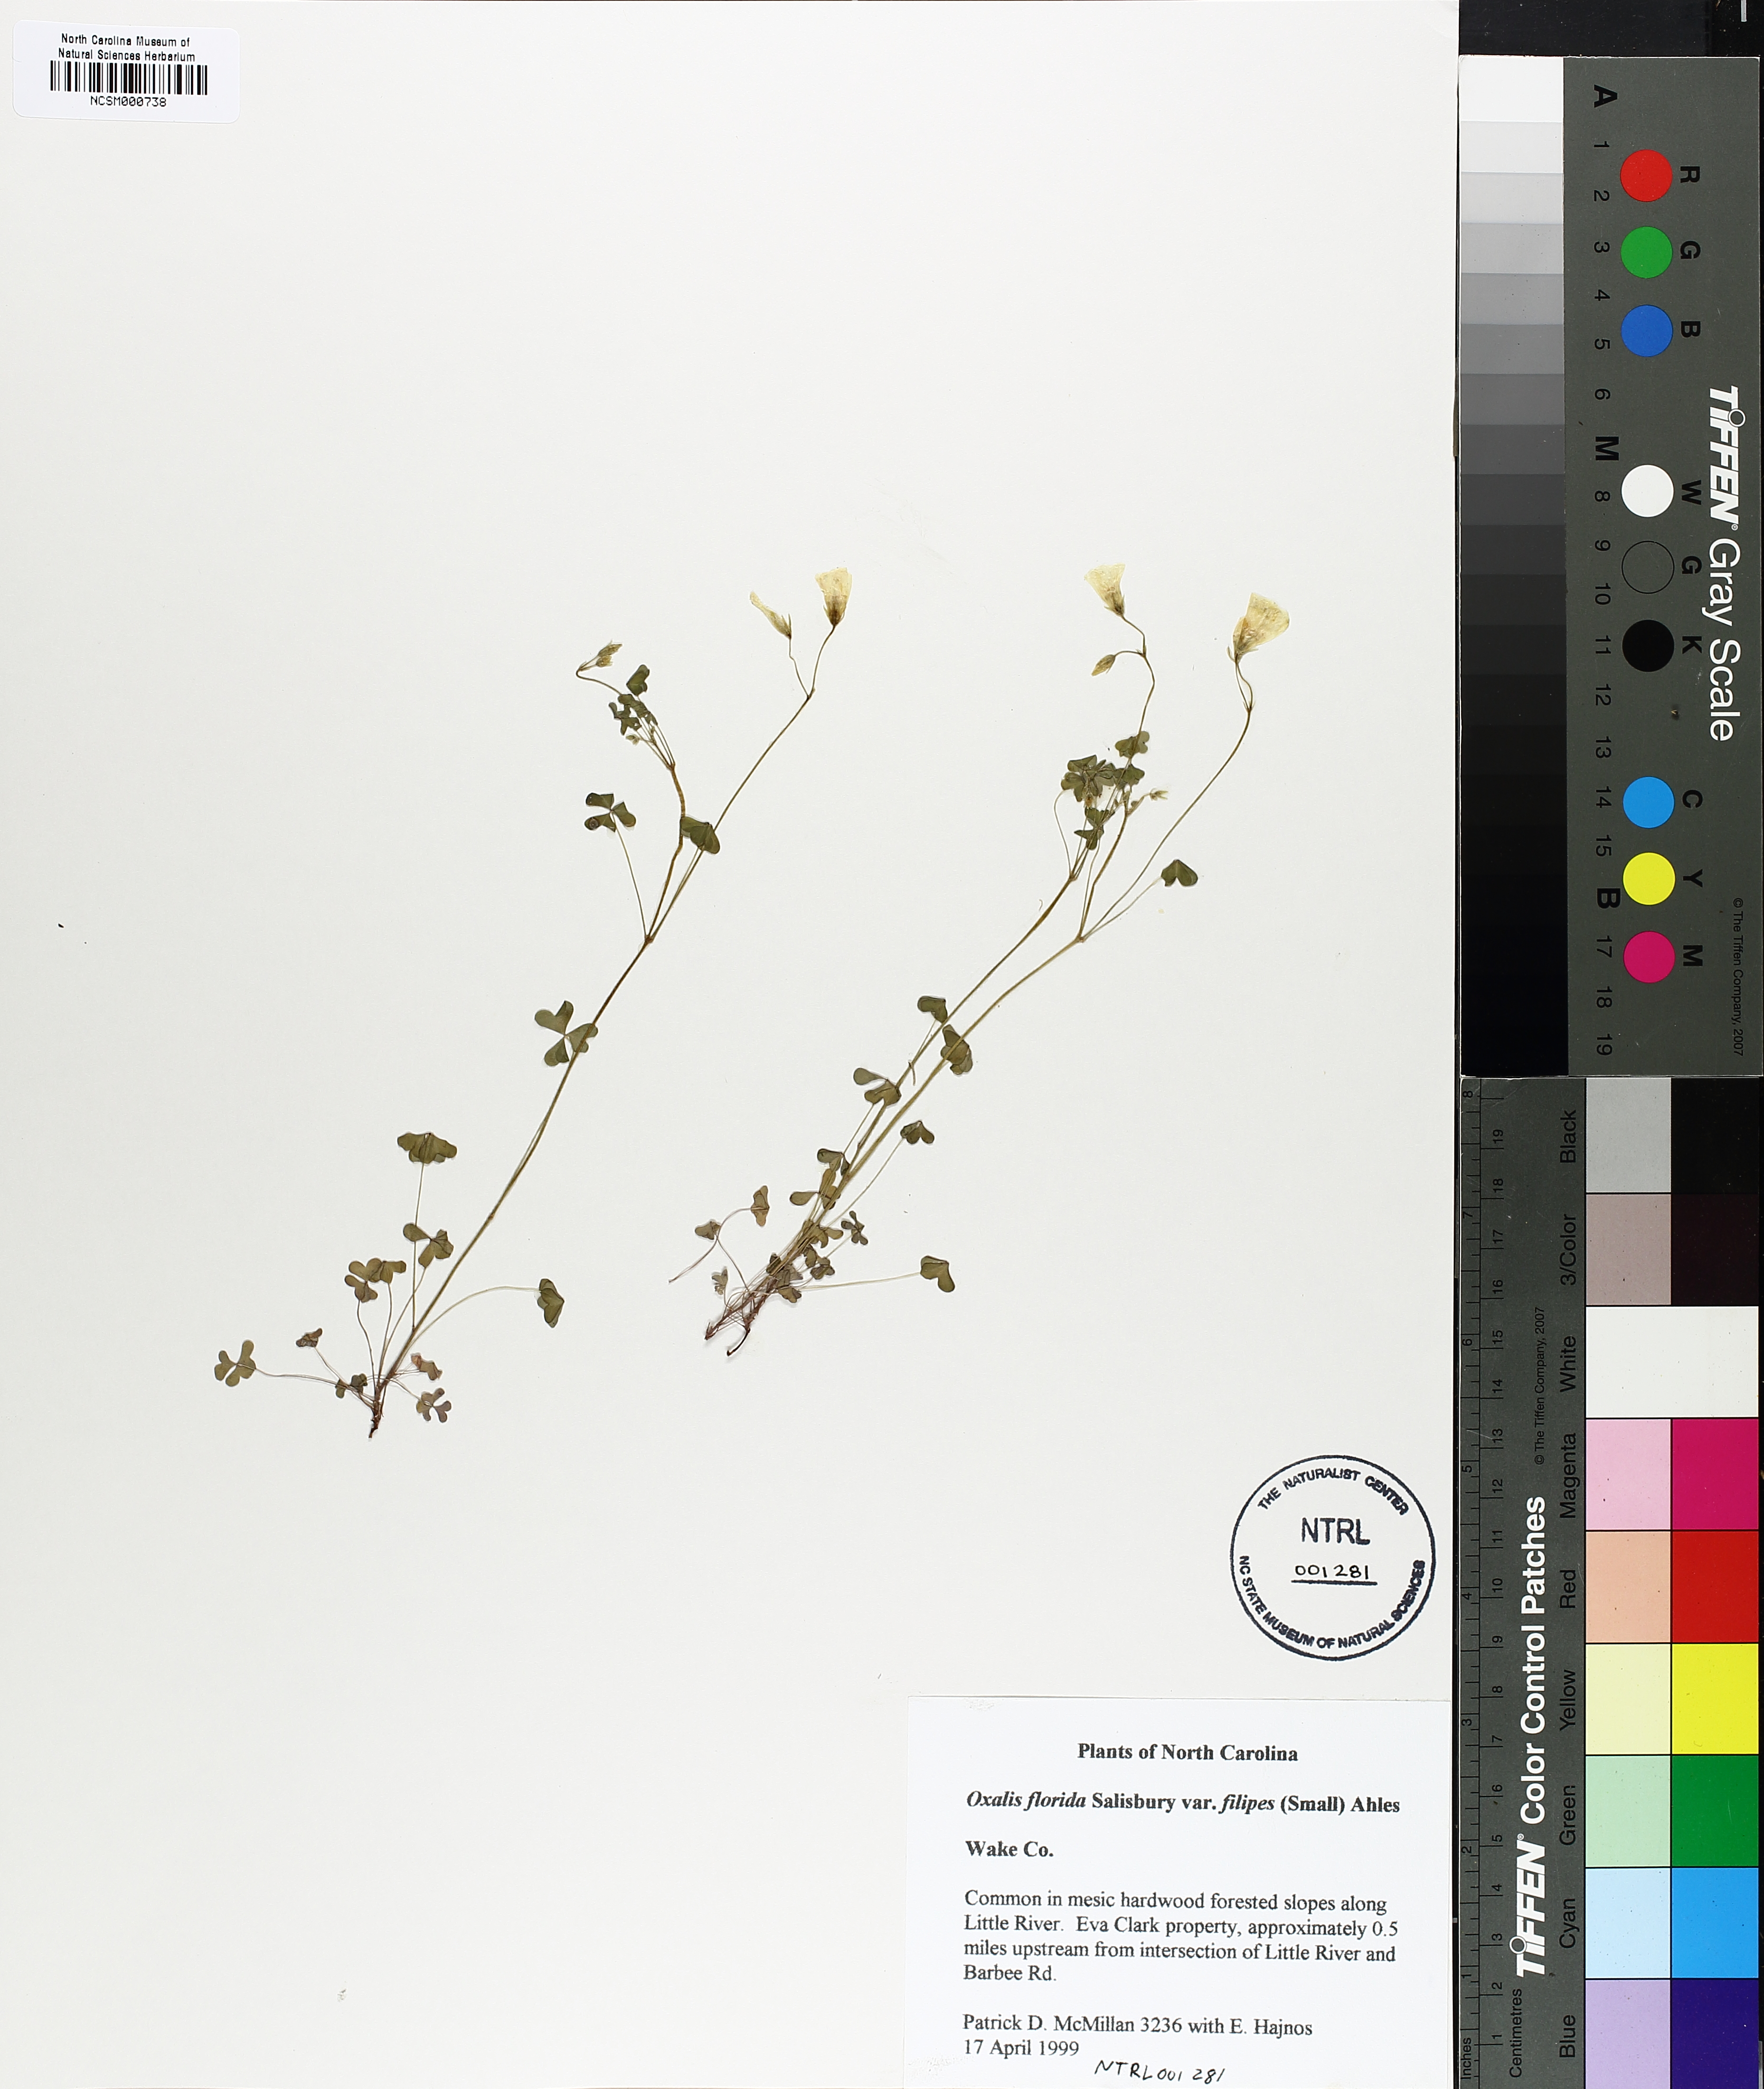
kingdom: Plantae
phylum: Tracheophyta
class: Magnoliopsida
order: Oxalidales
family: Oxalidaceae
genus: Oxalis
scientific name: Oxalis florida
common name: Flowering yellow woodsorrel
